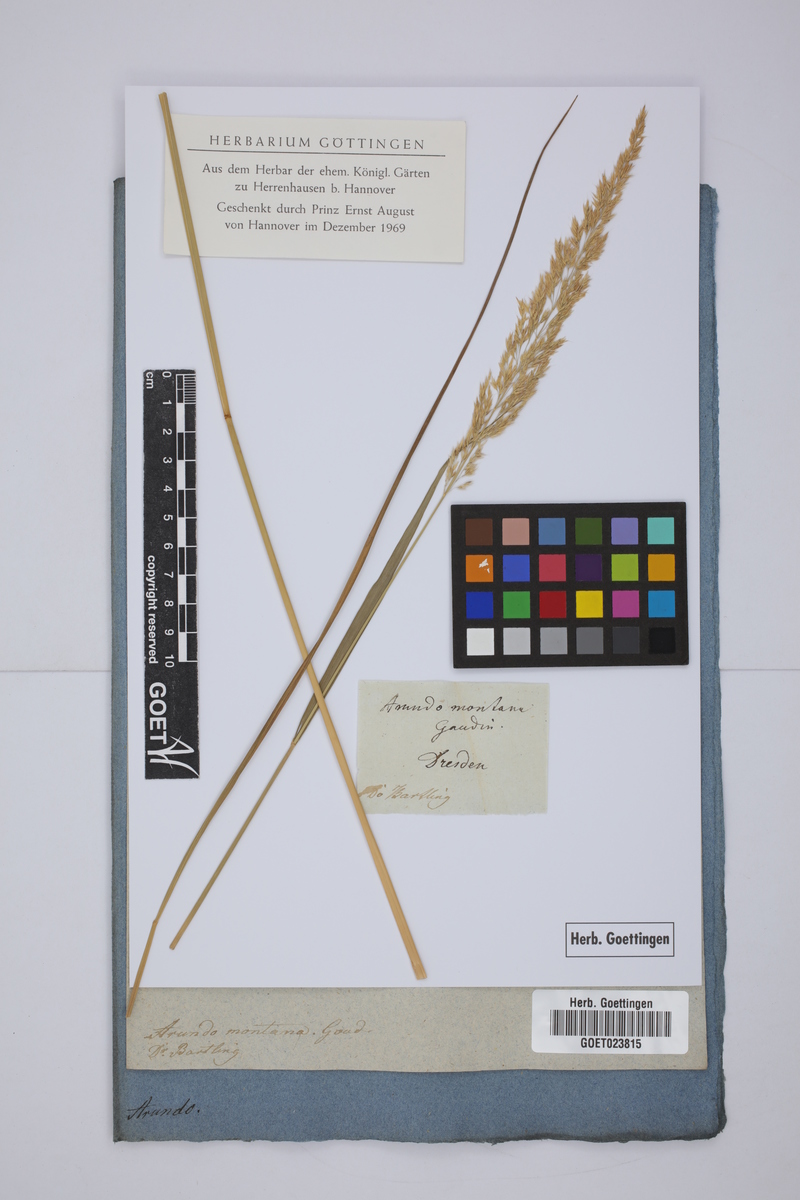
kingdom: Plantae
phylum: Tracheophyta
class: Liliopsida
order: Poales
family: Poaceae
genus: Calamagrostis
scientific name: Calamagrostis arundinacea
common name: Metskastik
